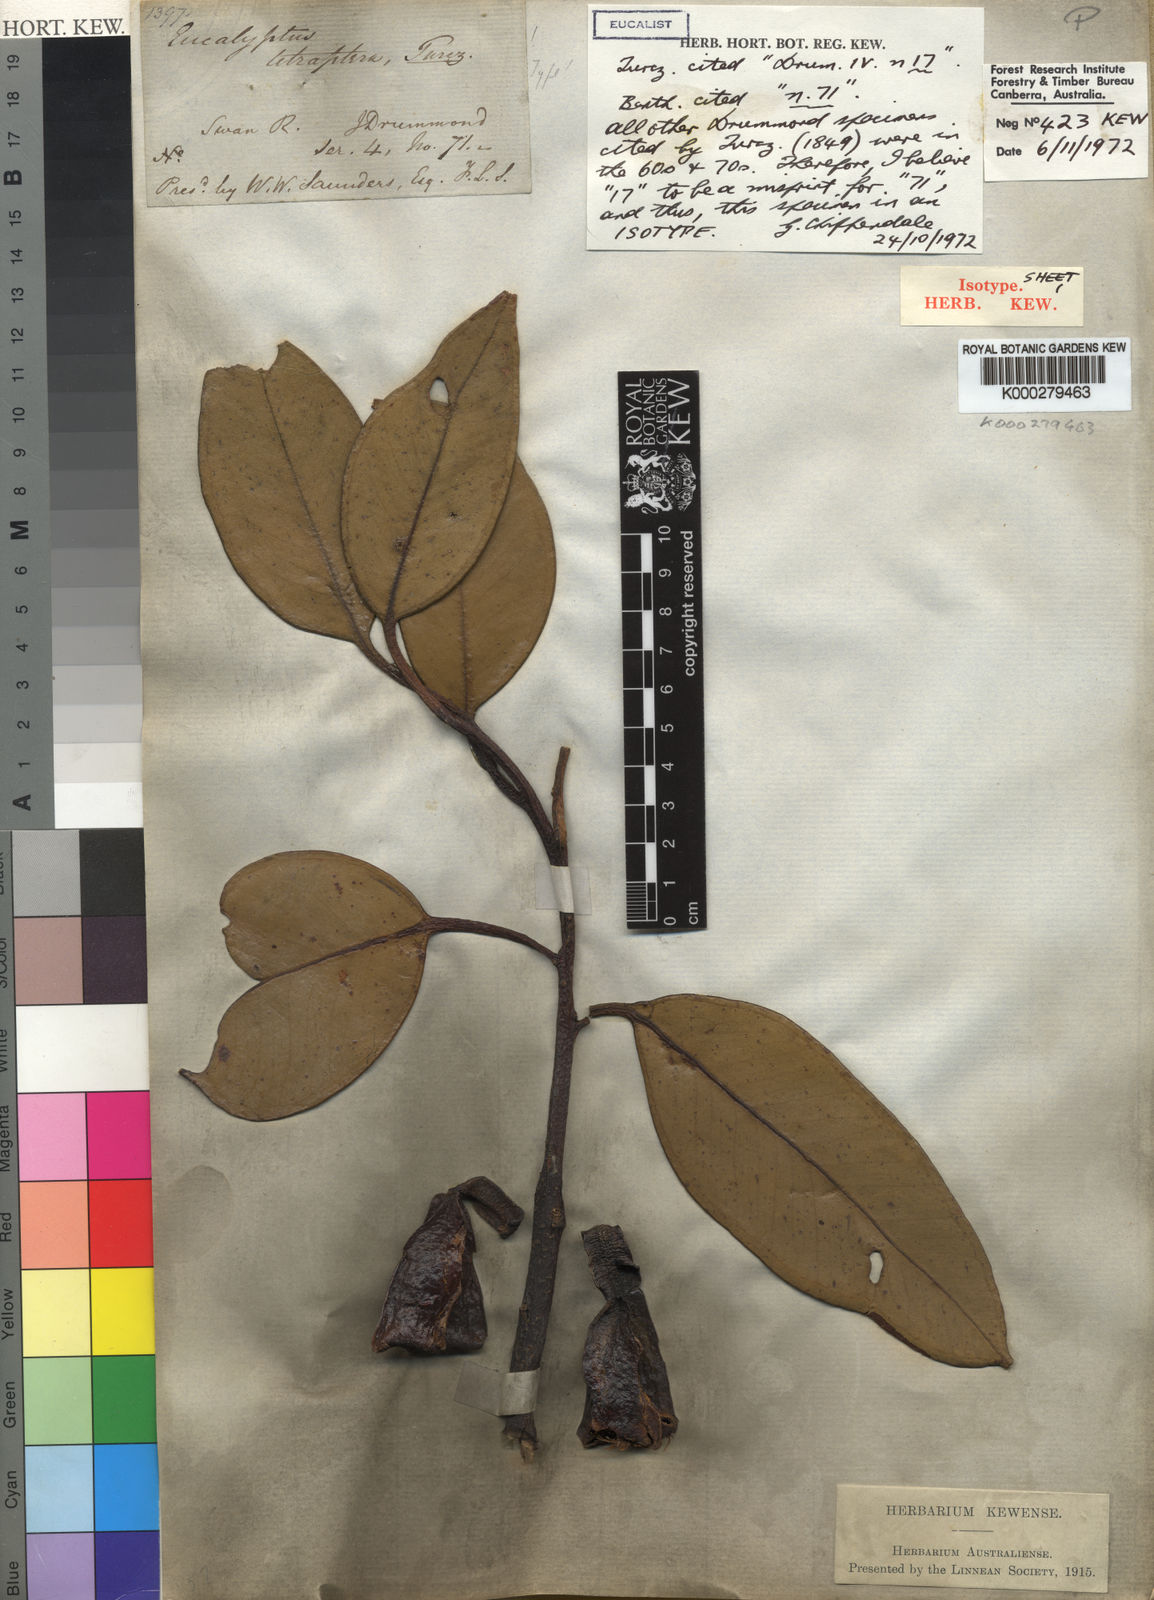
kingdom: Plantae
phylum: Tracheophyta
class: Magnoliopsida
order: Myrtales
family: Myrtaceae
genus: Eucalyptus
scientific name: Eucalyptus tetraptera
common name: Four-wing mallee
